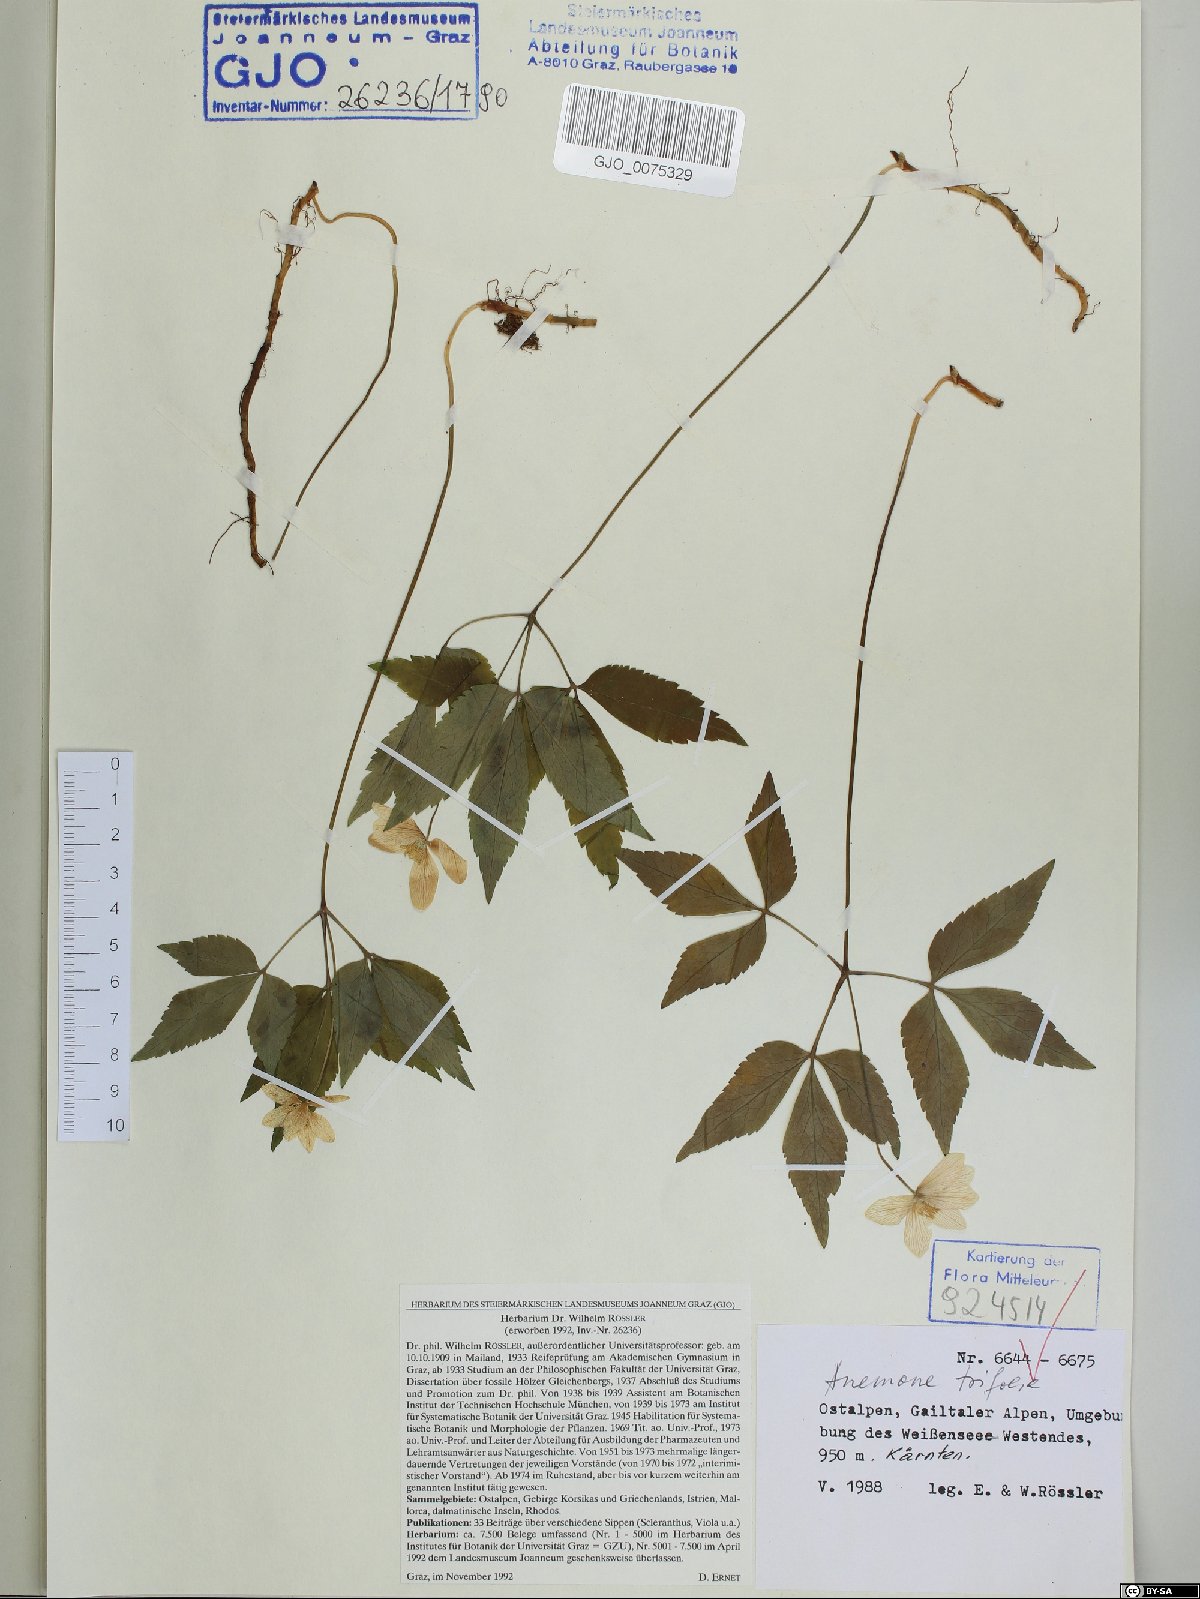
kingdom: Plantae
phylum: Tracheophyta
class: Magnoliopsida
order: Ranunculales
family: Ranunculaceae
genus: Anemone
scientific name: Anemone trifolia
